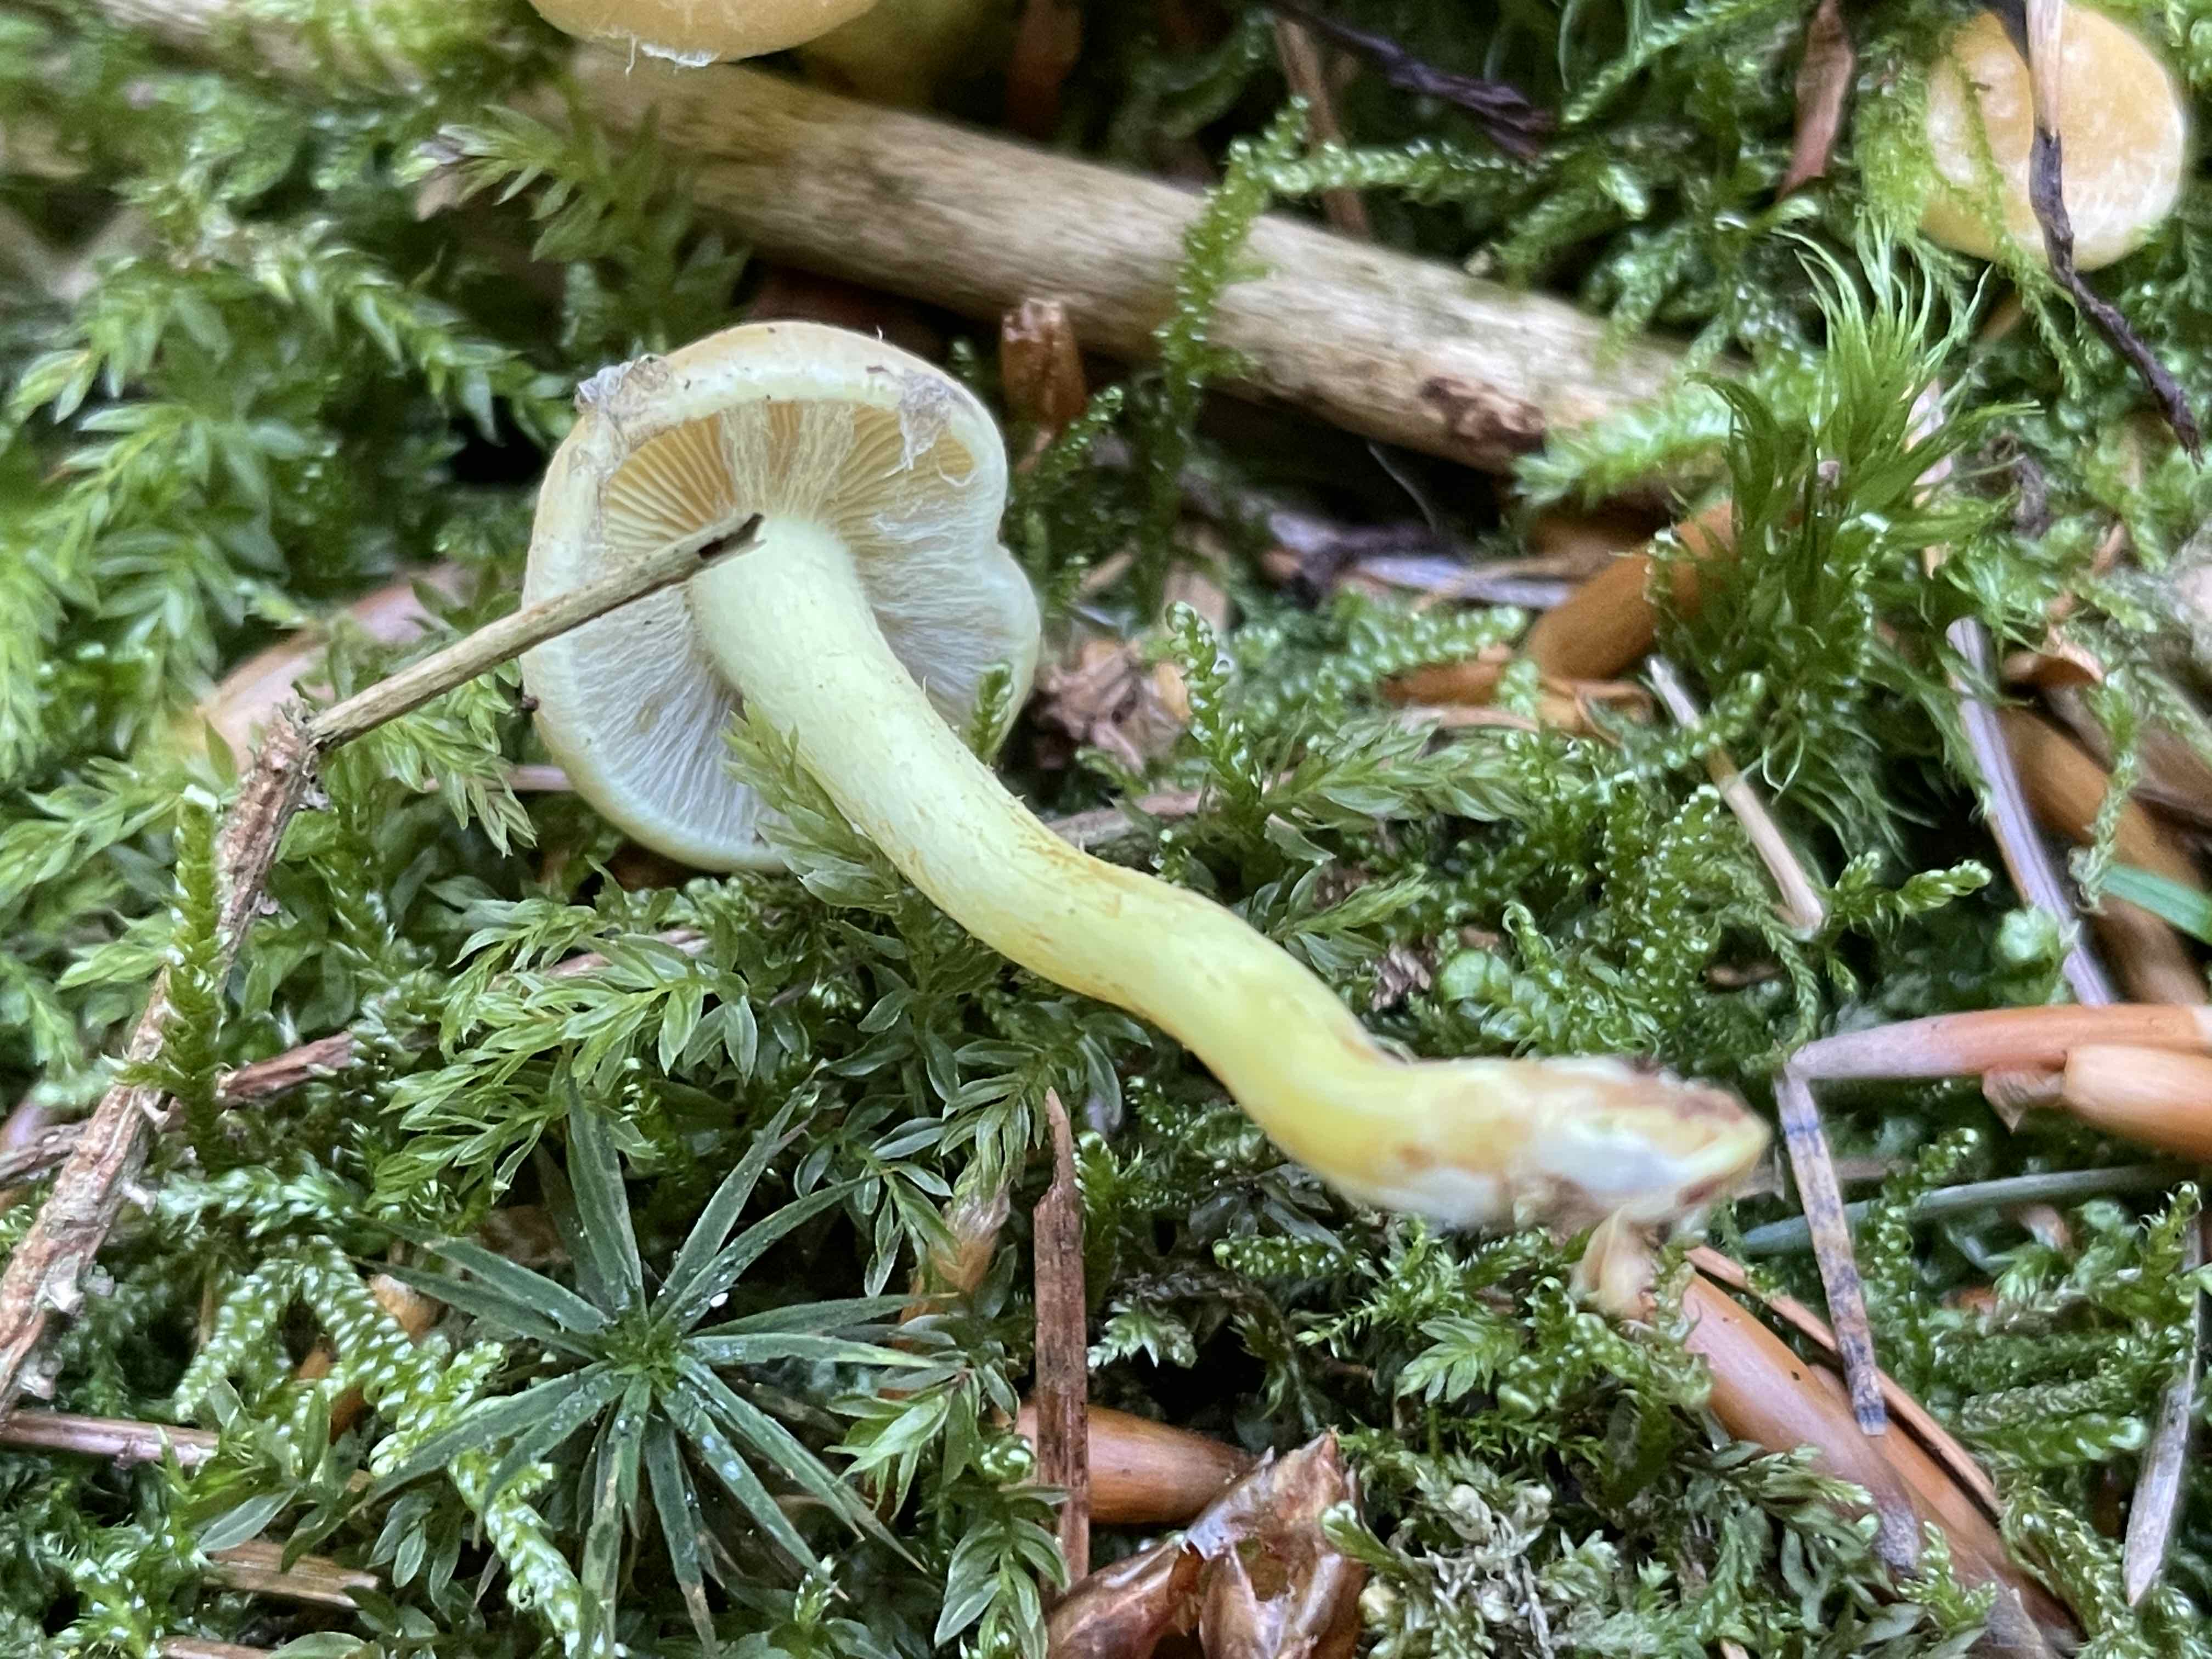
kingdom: Fungi
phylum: Basidiomycota
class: Agaricomycetes
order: Agaricales
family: Strophariaceae
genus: Hypholoma
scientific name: Hypholoma fasciculare
